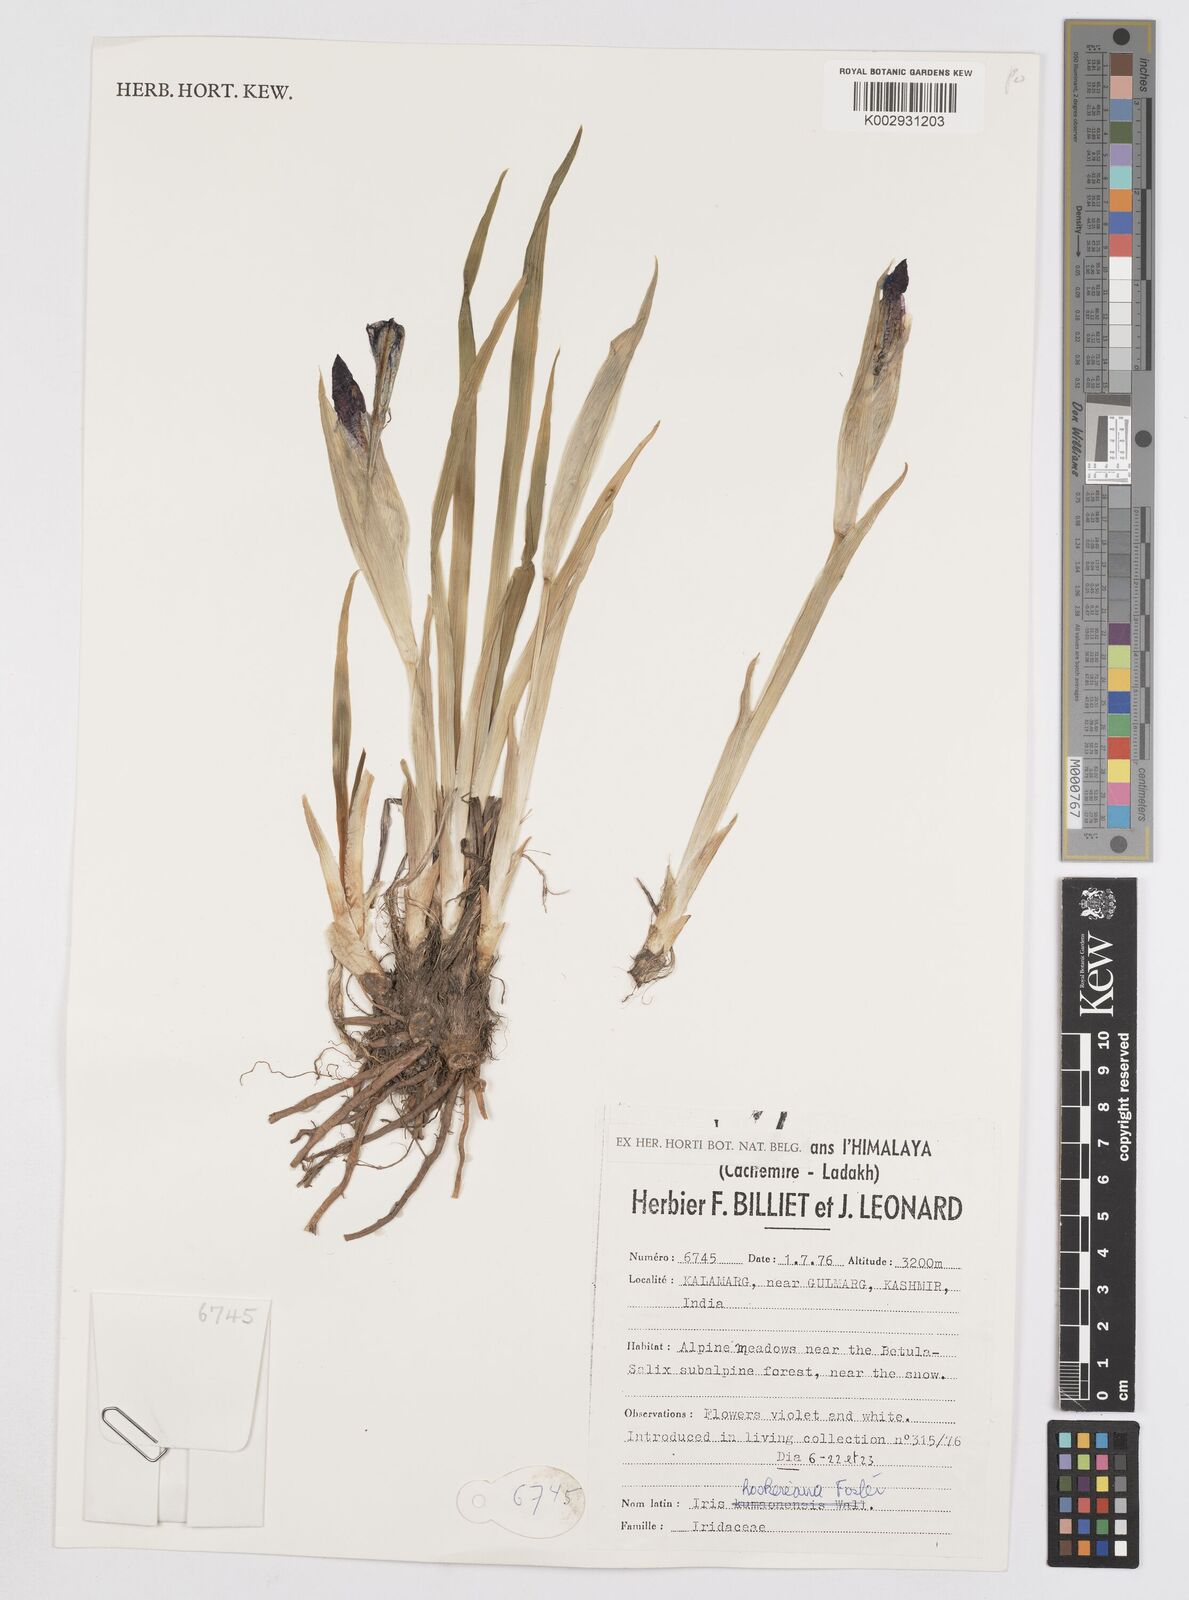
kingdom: Plantae
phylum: Tracheophyta
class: Liliopsida
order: Asparagales
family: Iridaceae
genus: Iris
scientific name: Iris hookeriana
